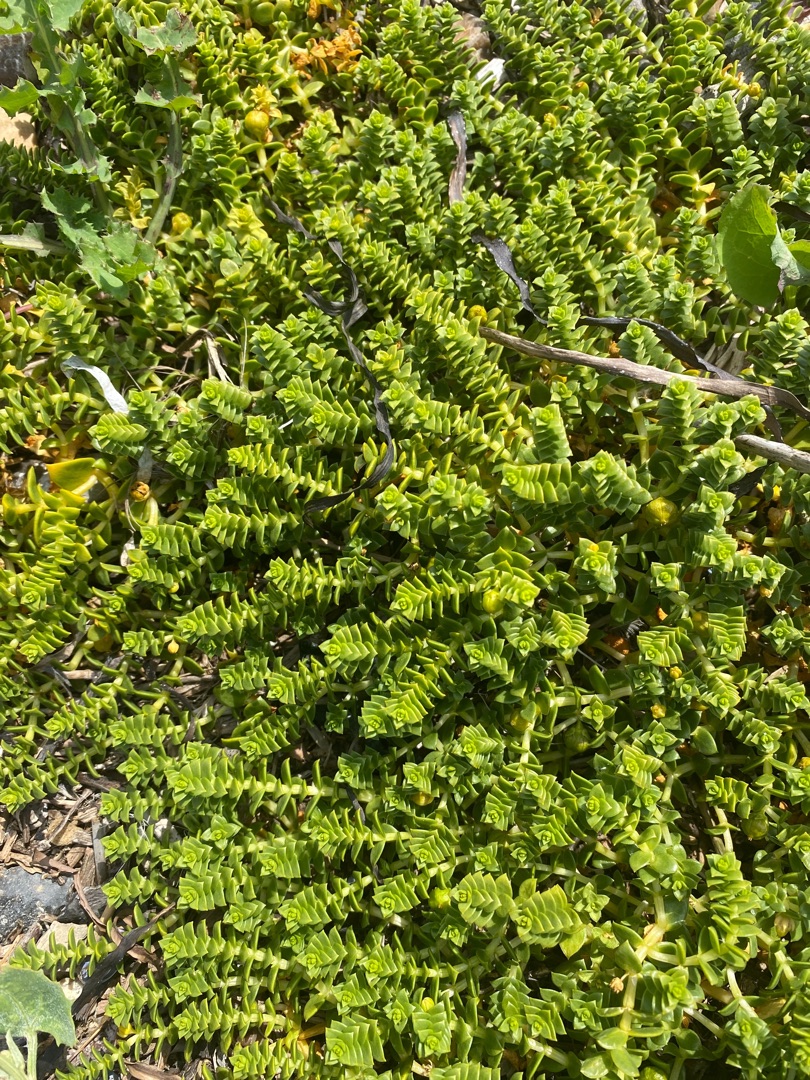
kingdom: Plantae
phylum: Tracheophyta
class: Magnoliopsida
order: Caryophyllales
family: Caryophyllaceae
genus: Honckenya
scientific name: Honckenya peploides
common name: Strandarve
